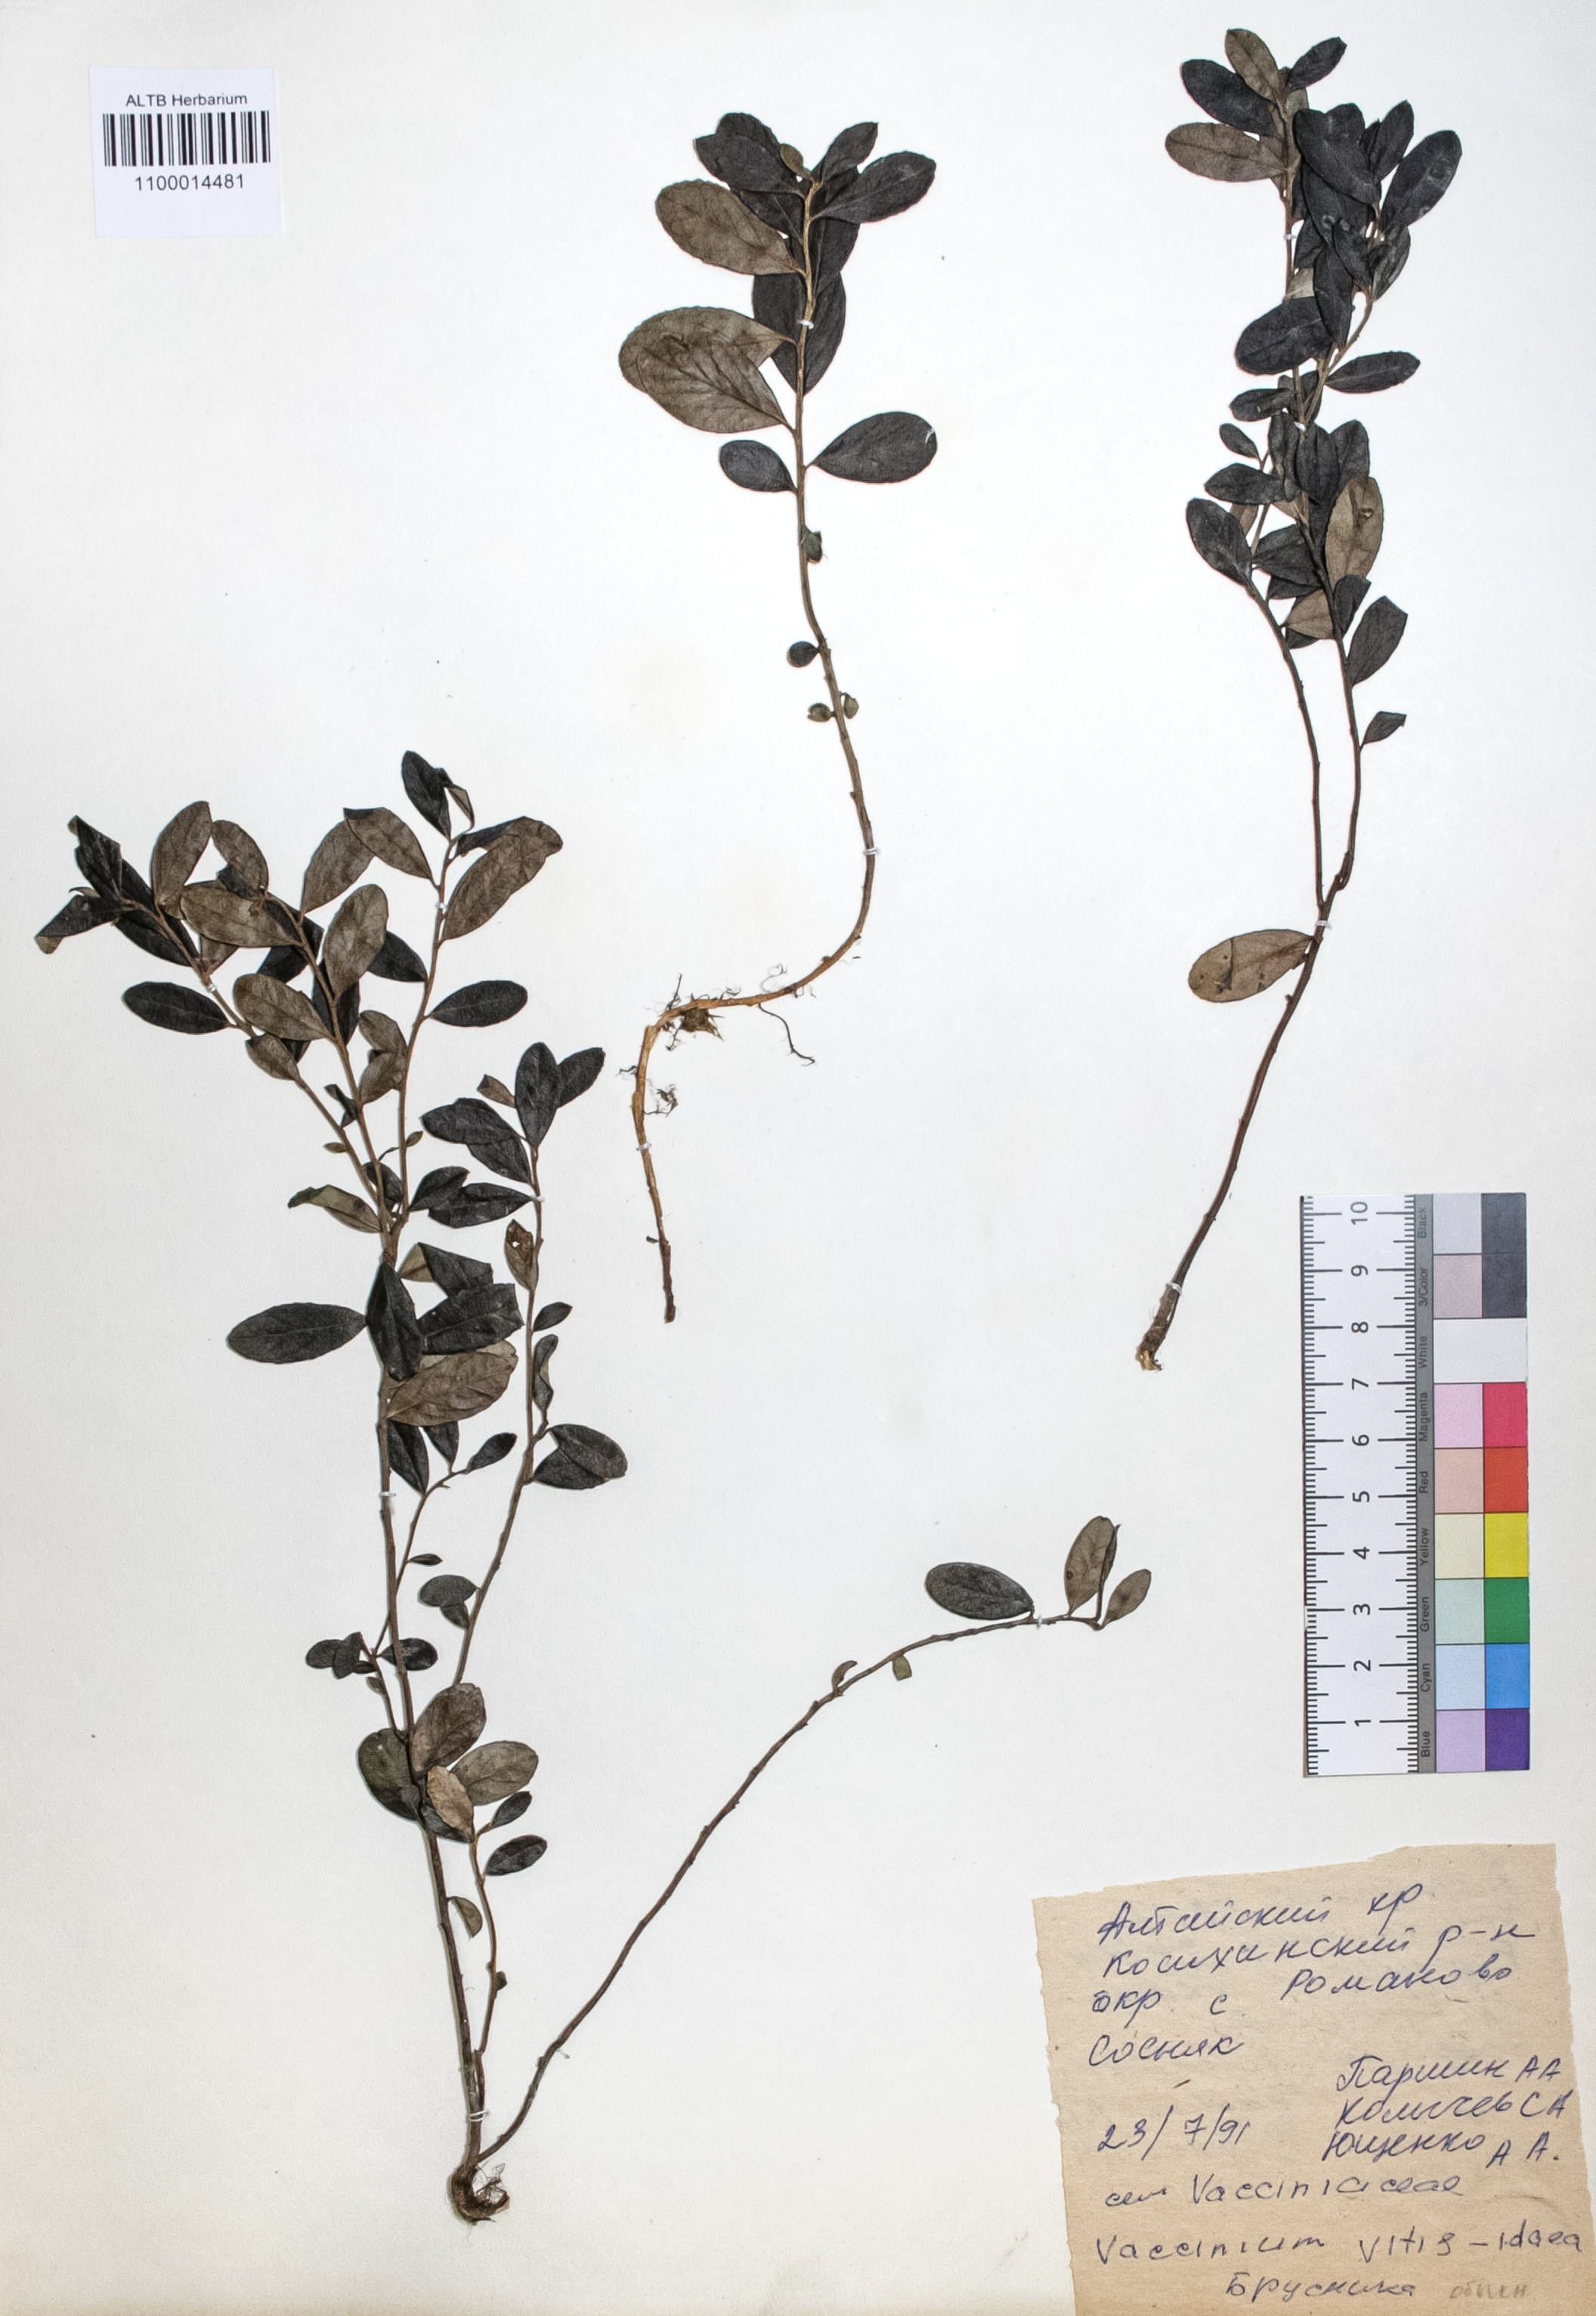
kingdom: Plantae
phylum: Tracheophyta
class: Magnoliopsida
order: Ericales
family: Ericaceae
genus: Vaccinium
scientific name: Vaccinium vitis-idaea
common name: Cowberry
